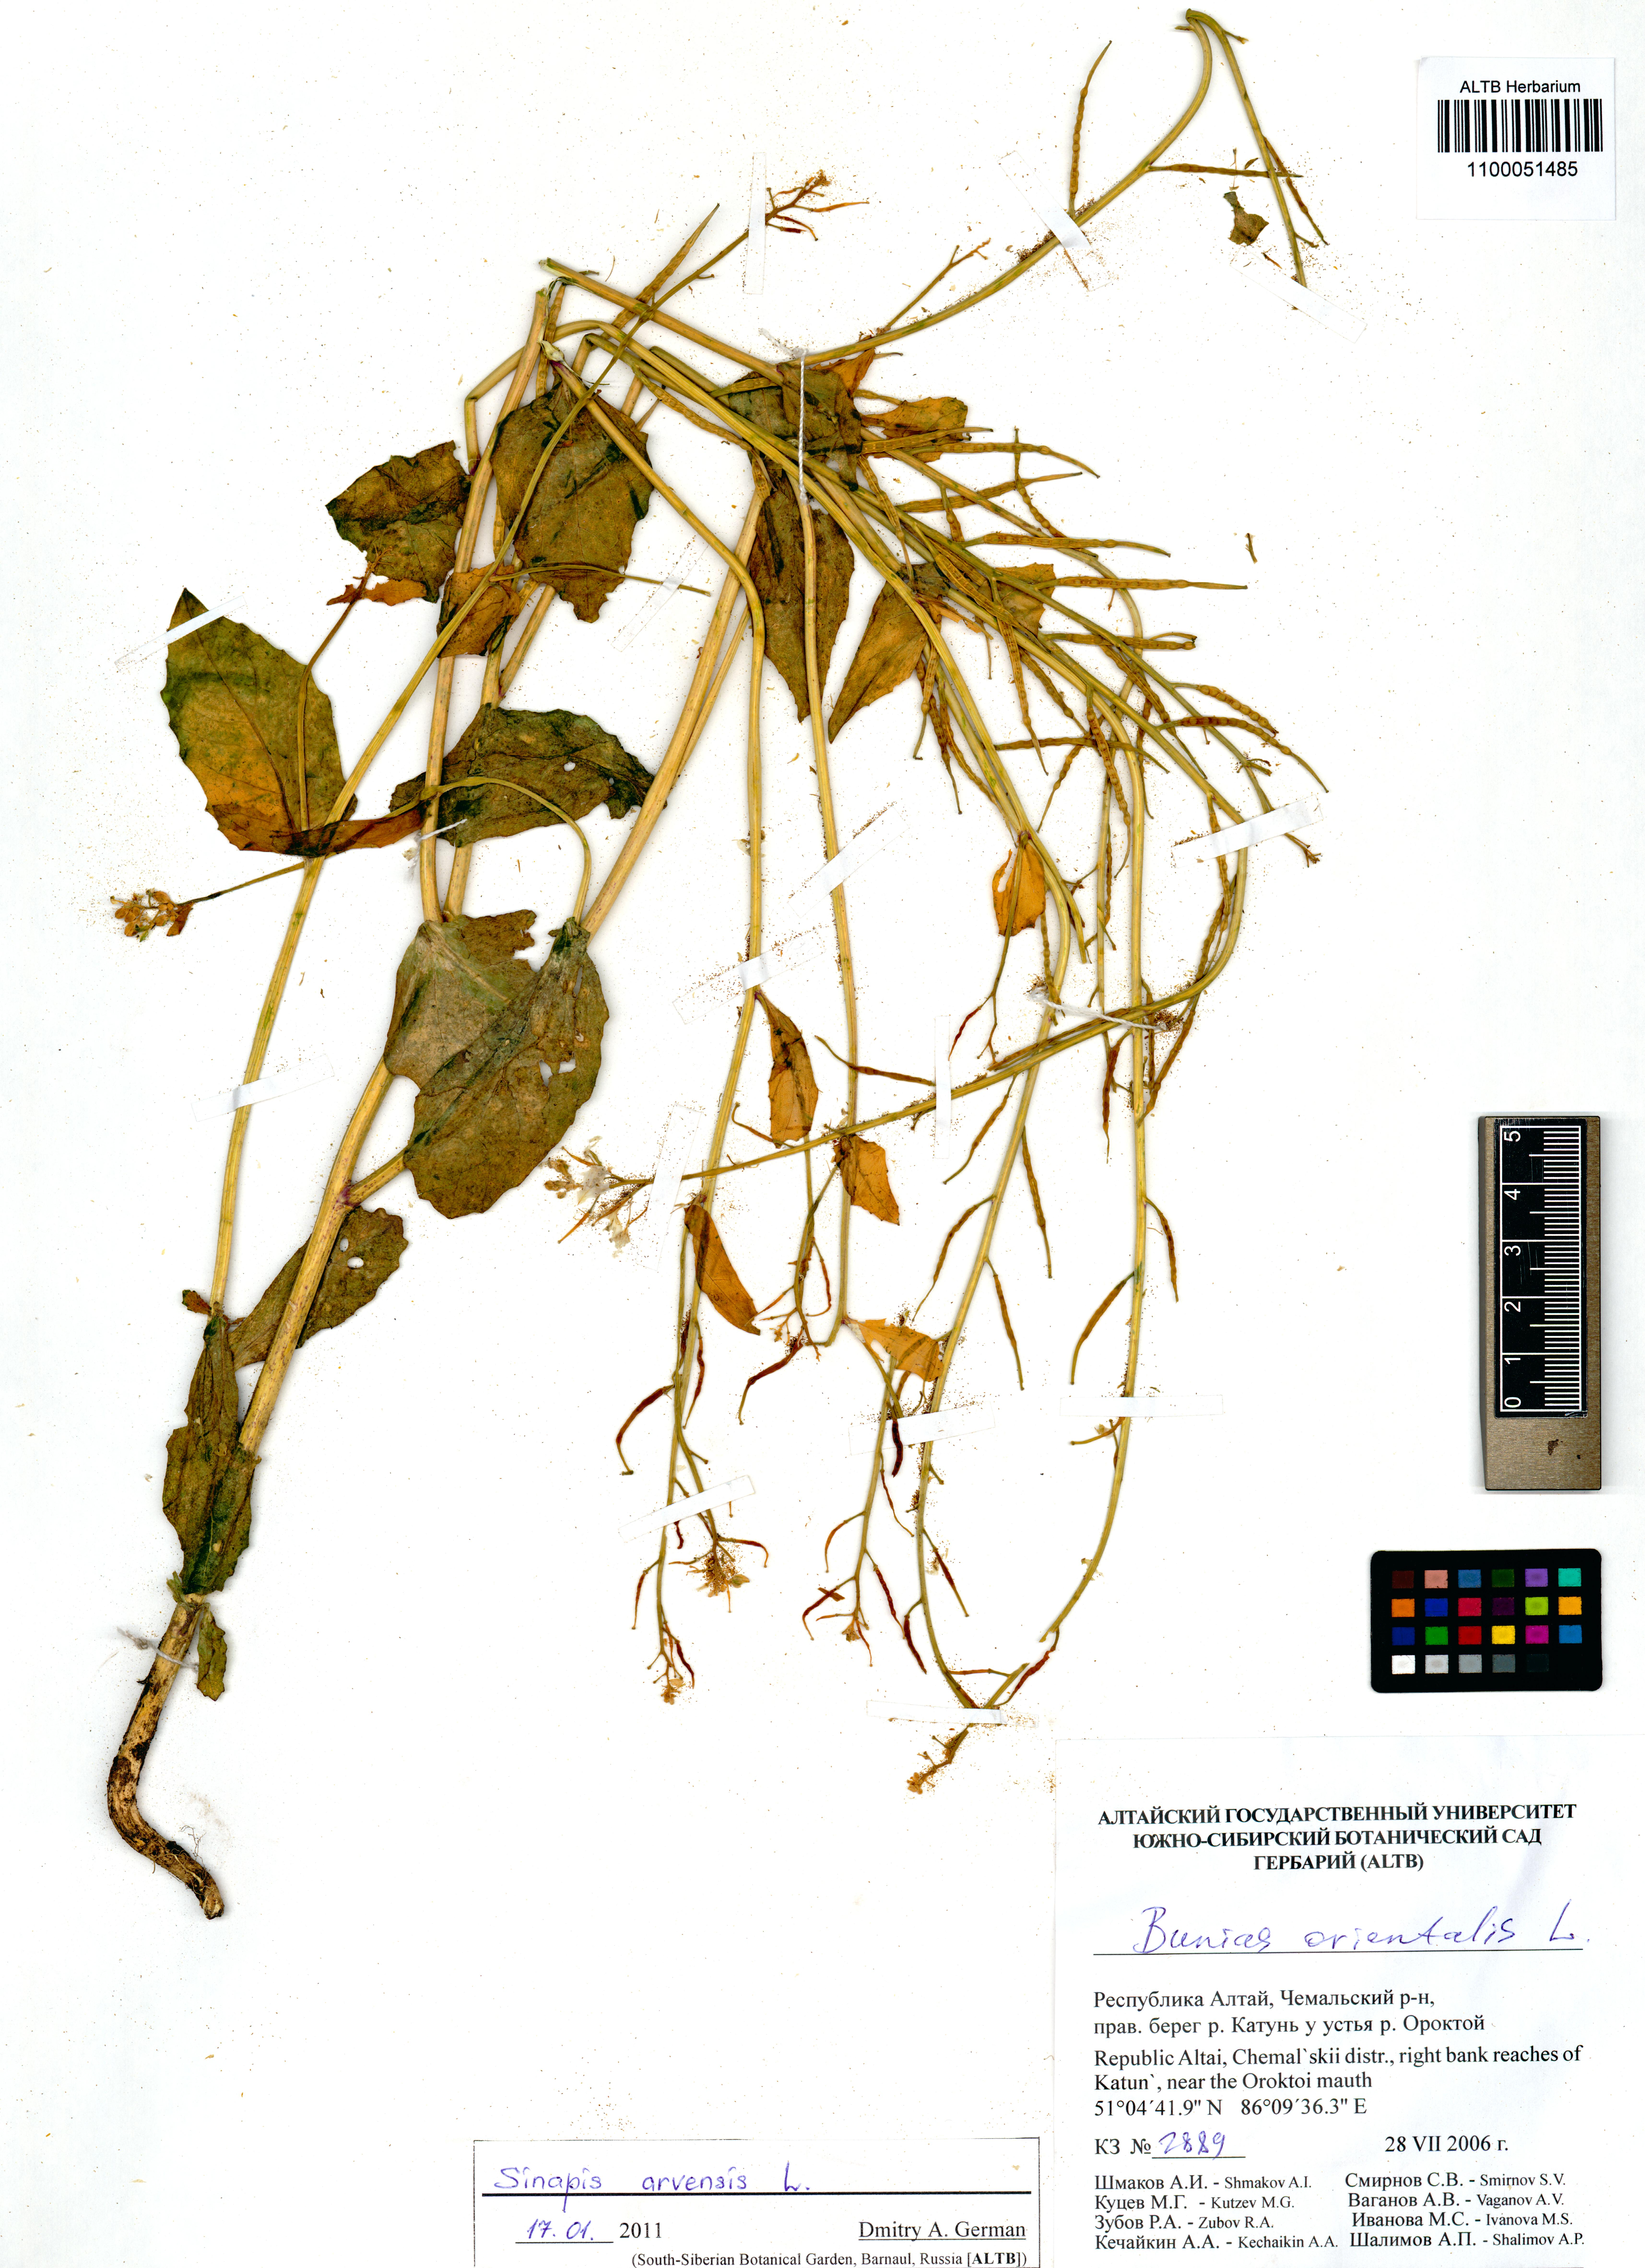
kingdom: Plantae
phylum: Tracheophyta
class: Magnoliopsida
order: Brassicales
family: Brassicaceae
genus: Sinapis
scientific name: Sinapis arvensis
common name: Charlock
